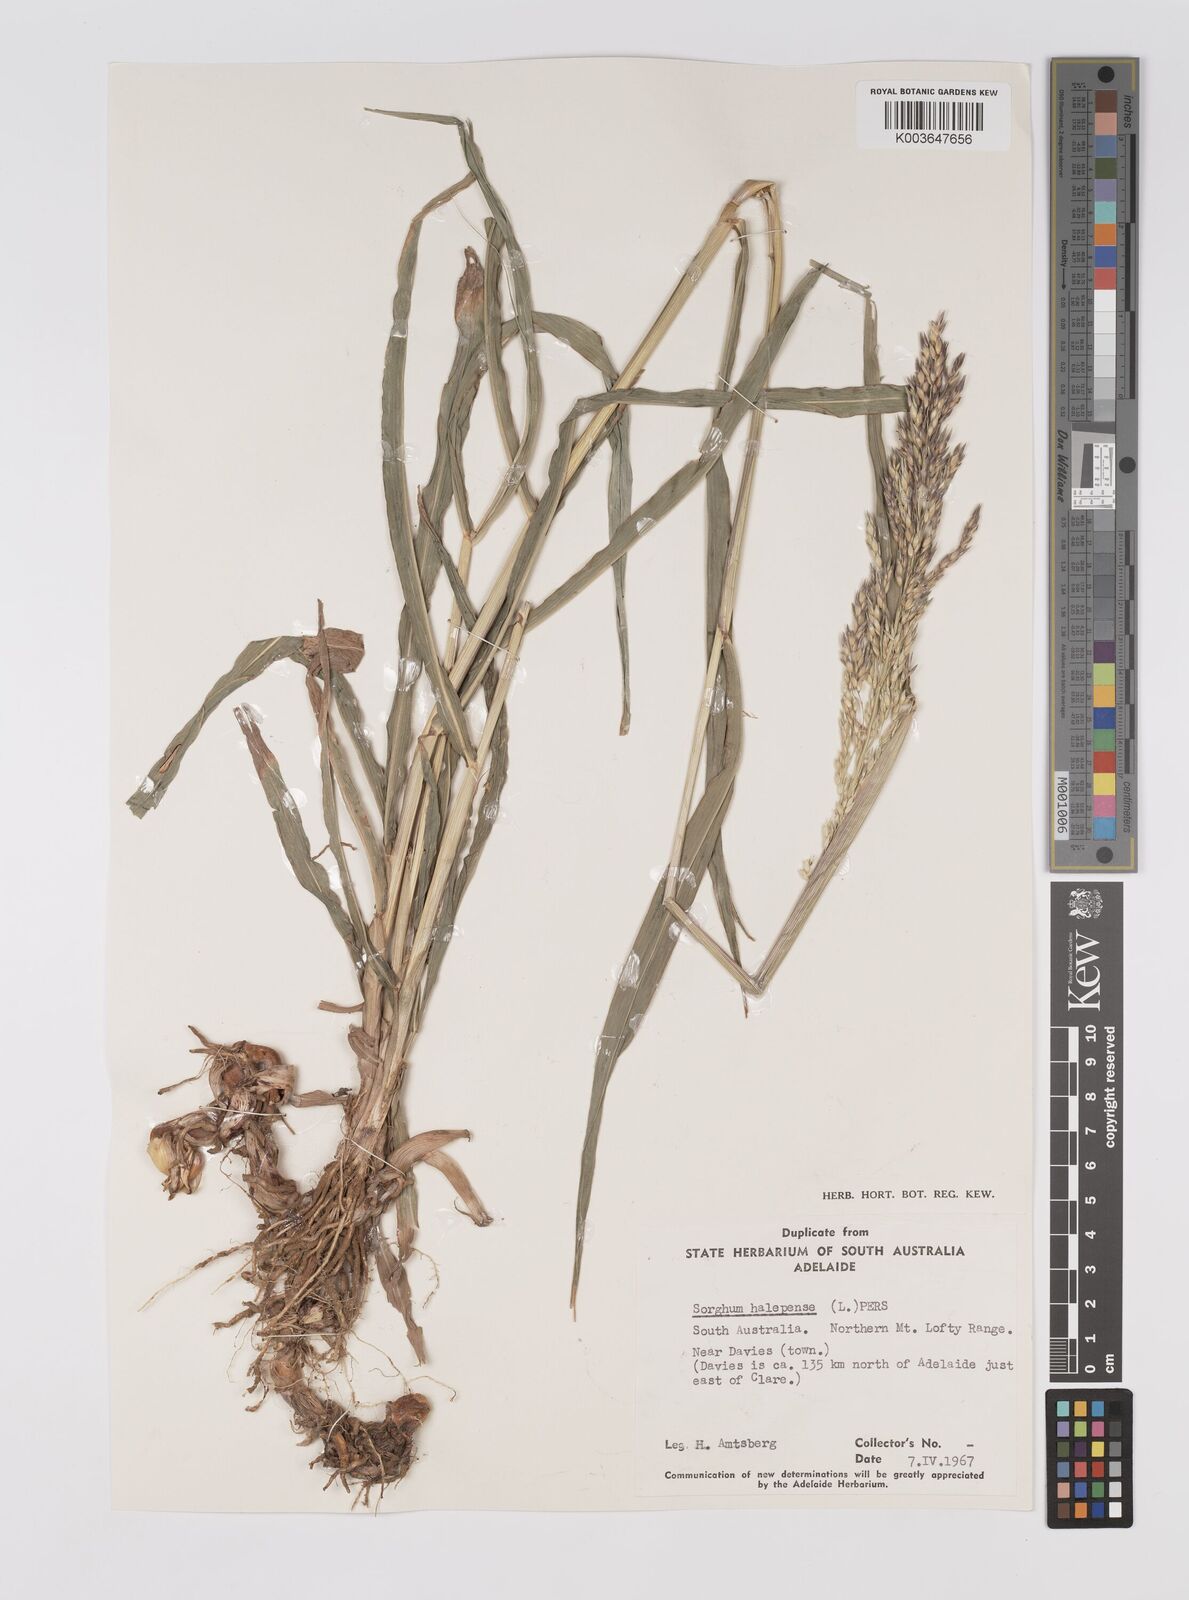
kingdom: Plantae
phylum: Tracheophyta
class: Liliopsida
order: Poales
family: Poaceae
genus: Sorghum
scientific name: Sorghum halepense
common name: Johnson-grass
